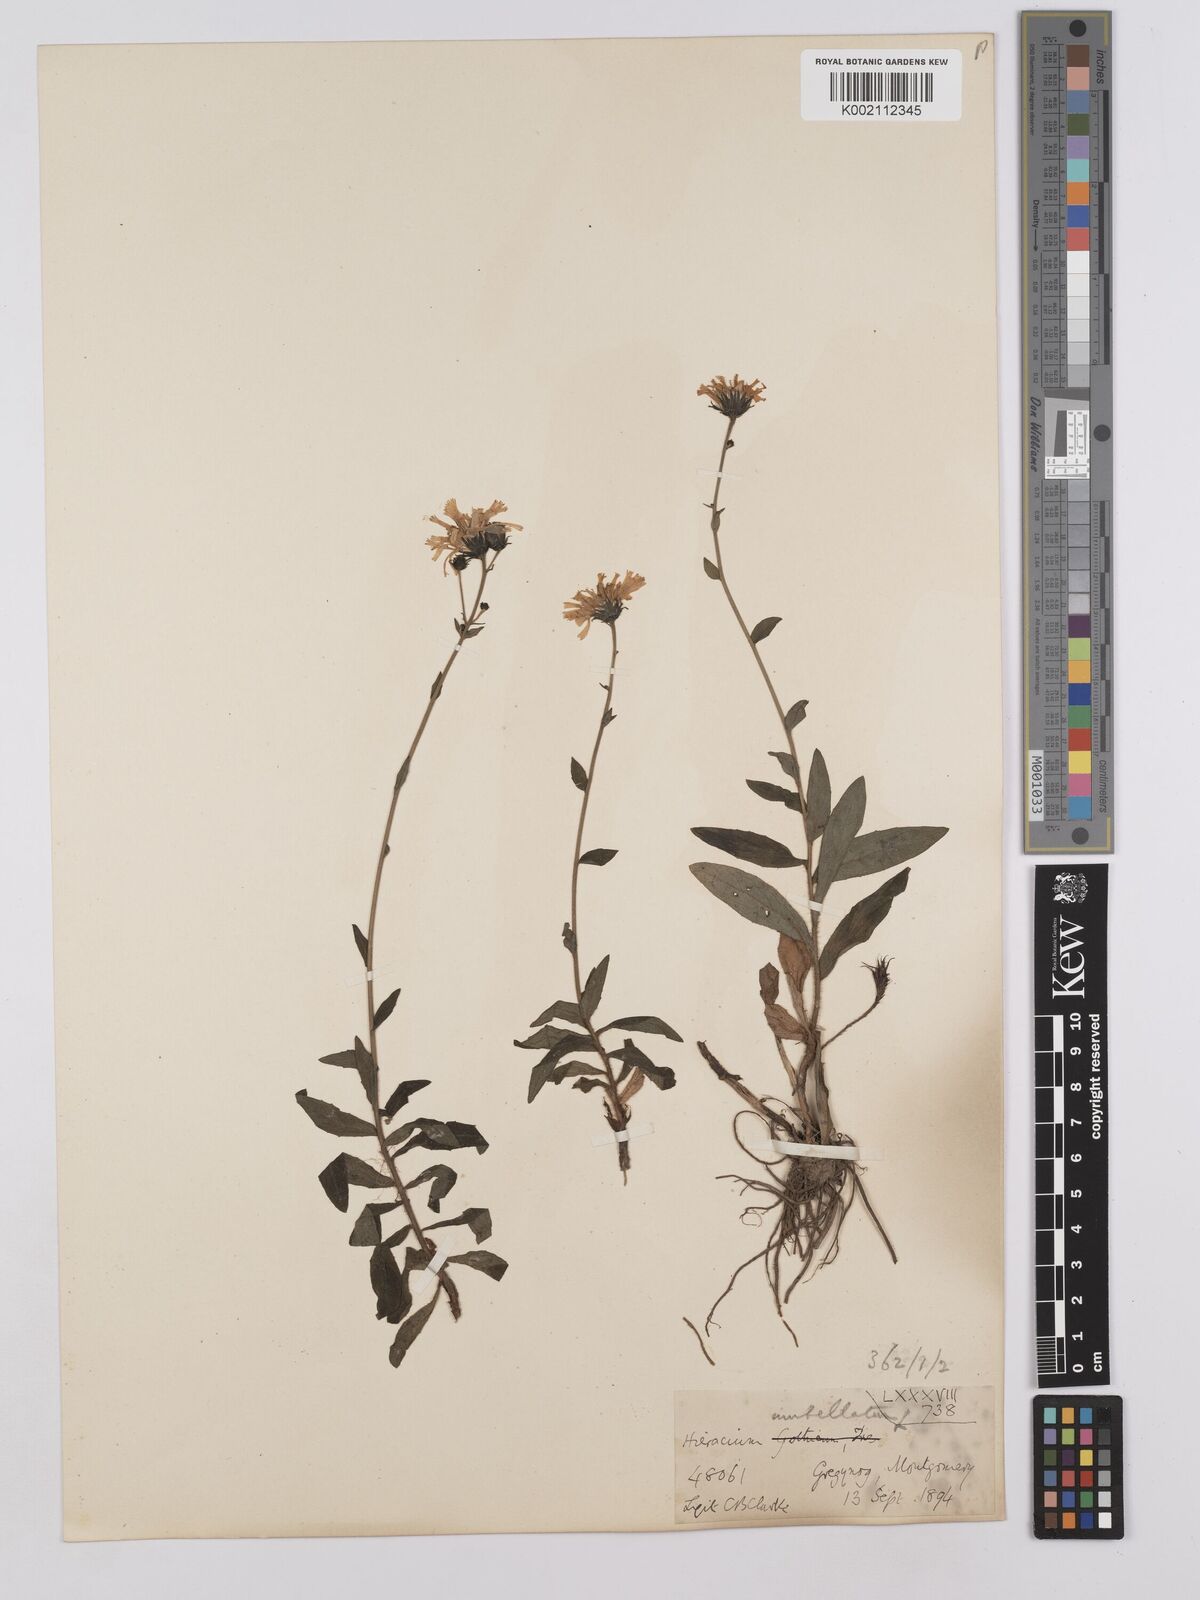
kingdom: Plantae
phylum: Tracheophyta
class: Magnoliopsida
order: Asterales
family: Asteraceae
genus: Hieracium
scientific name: Hieracium umbellatum
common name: Northern hawkweed
